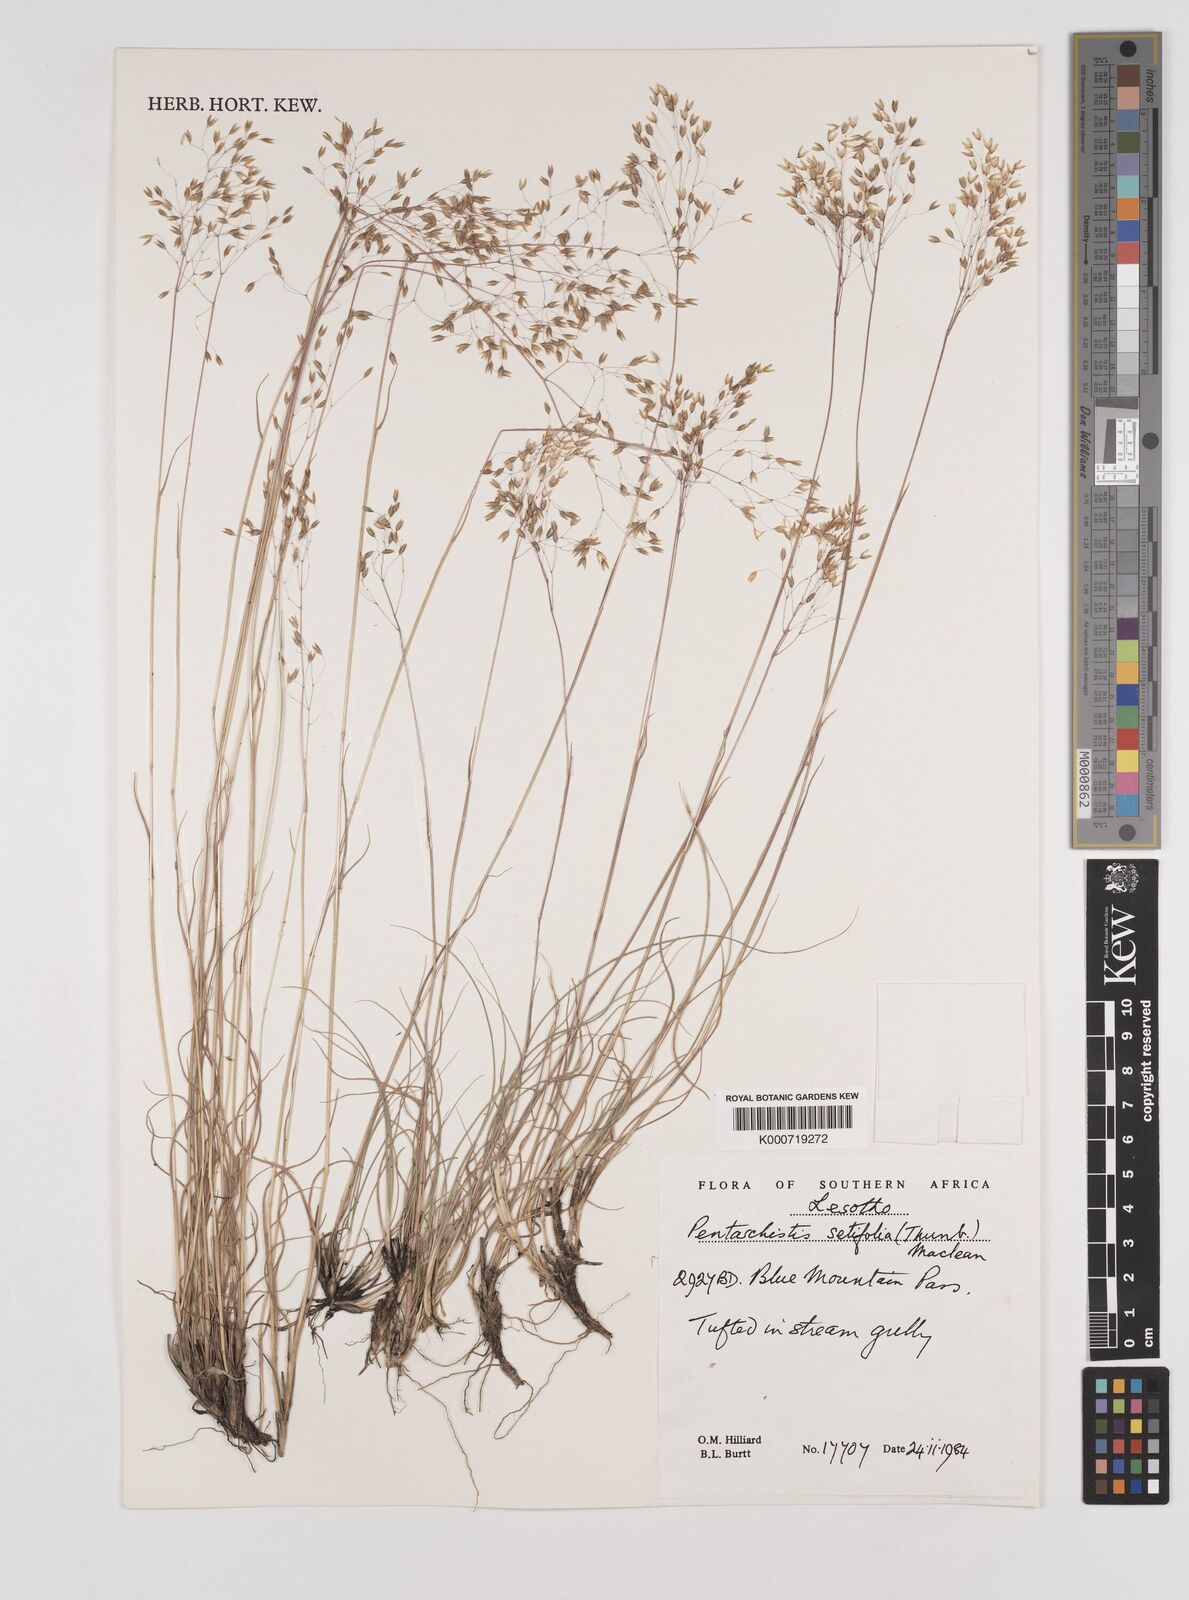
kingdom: Plantae
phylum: Tracheophyta
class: Liliopsida
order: Poales
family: Poaceae
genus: Pentameris
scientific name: Pentameris setifolia
